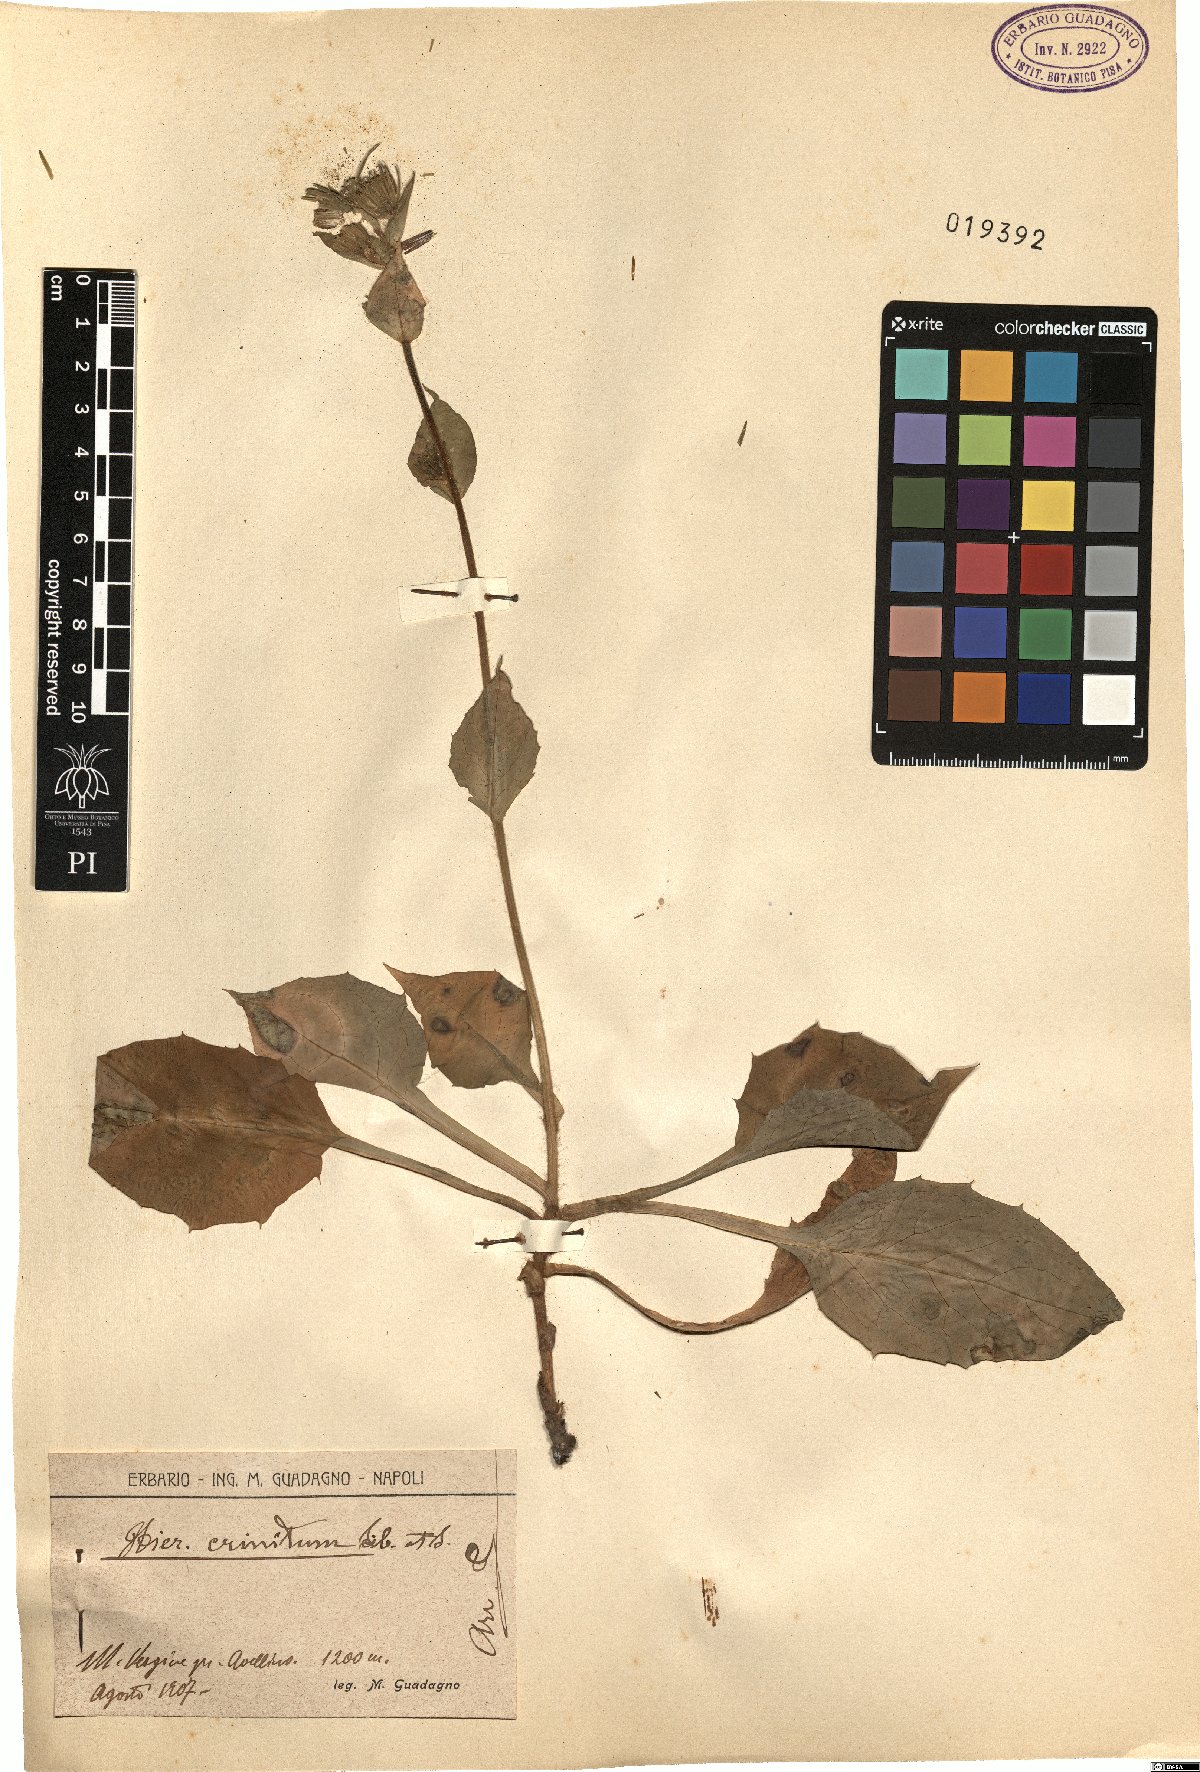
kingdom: Plantae
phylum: Tracheophyta
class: Magnoliopsida
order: Asterales
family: Asteraceae
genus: Hieracium
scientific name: Hieracium racemosum
